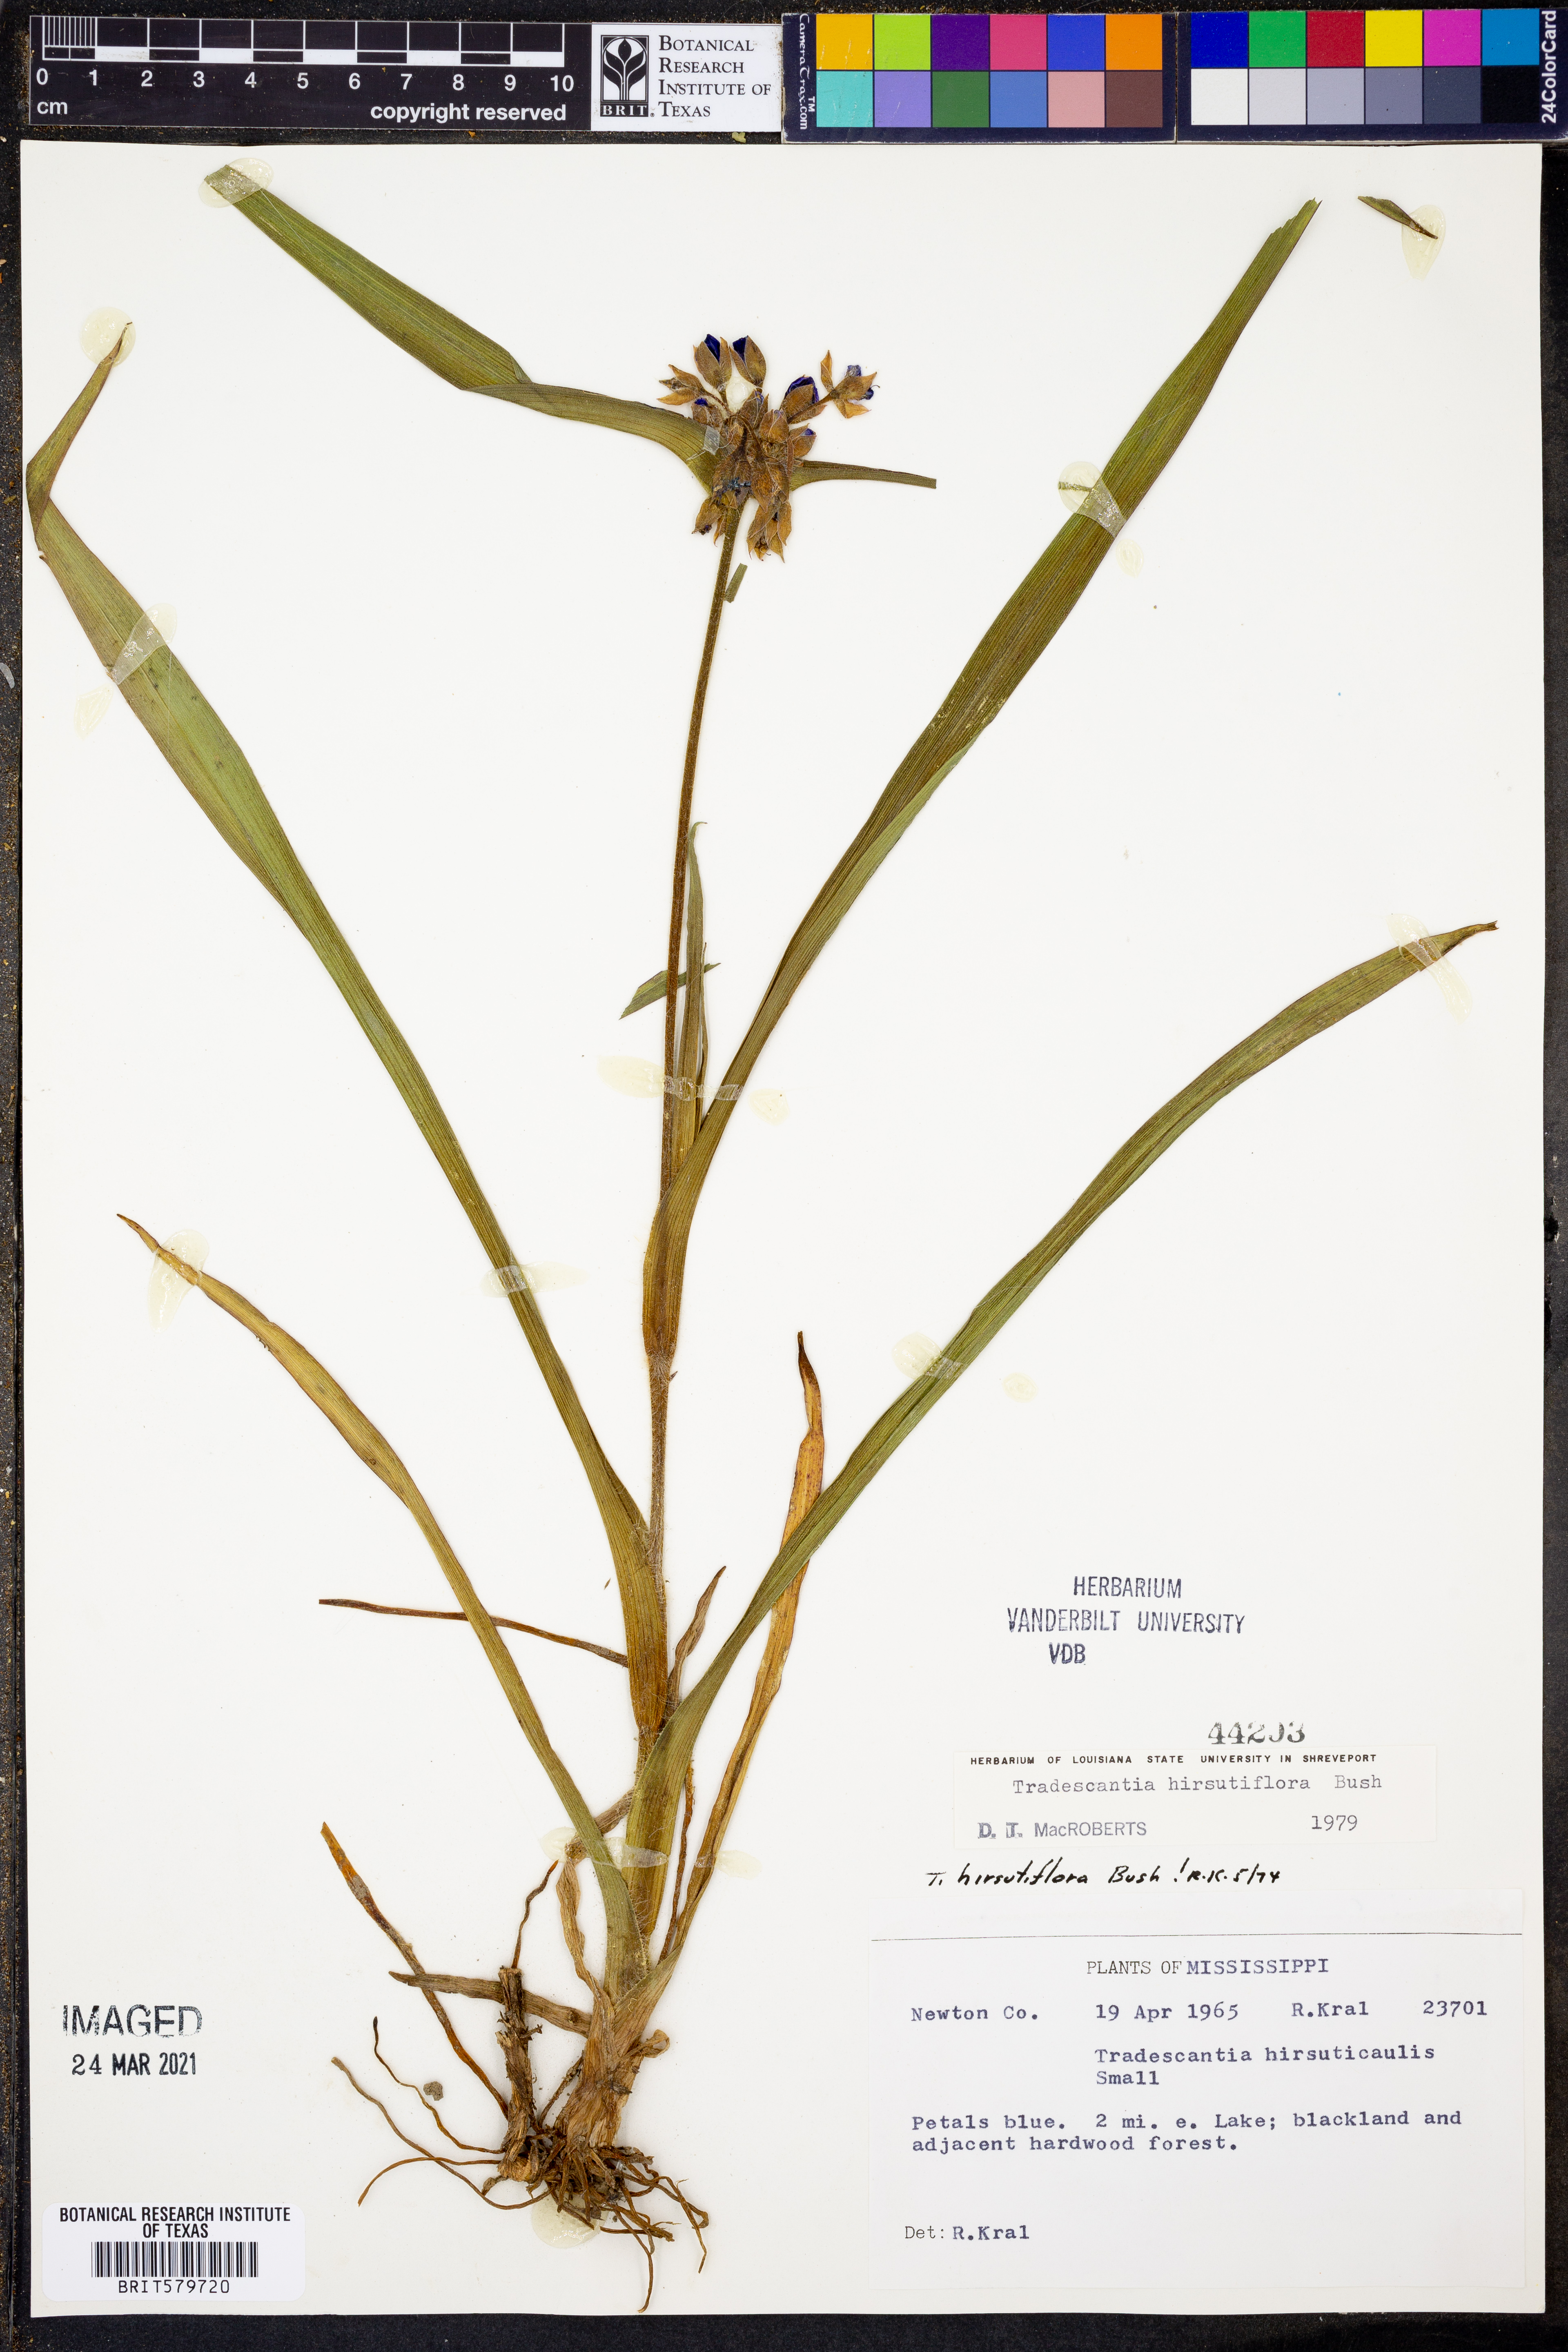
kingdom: Plantae
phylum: Tracheophyta
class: Liliopsida
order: Commelinales
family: Commelinaceae
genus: Tradescantia
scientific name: Tradescantia hirsutiflora
